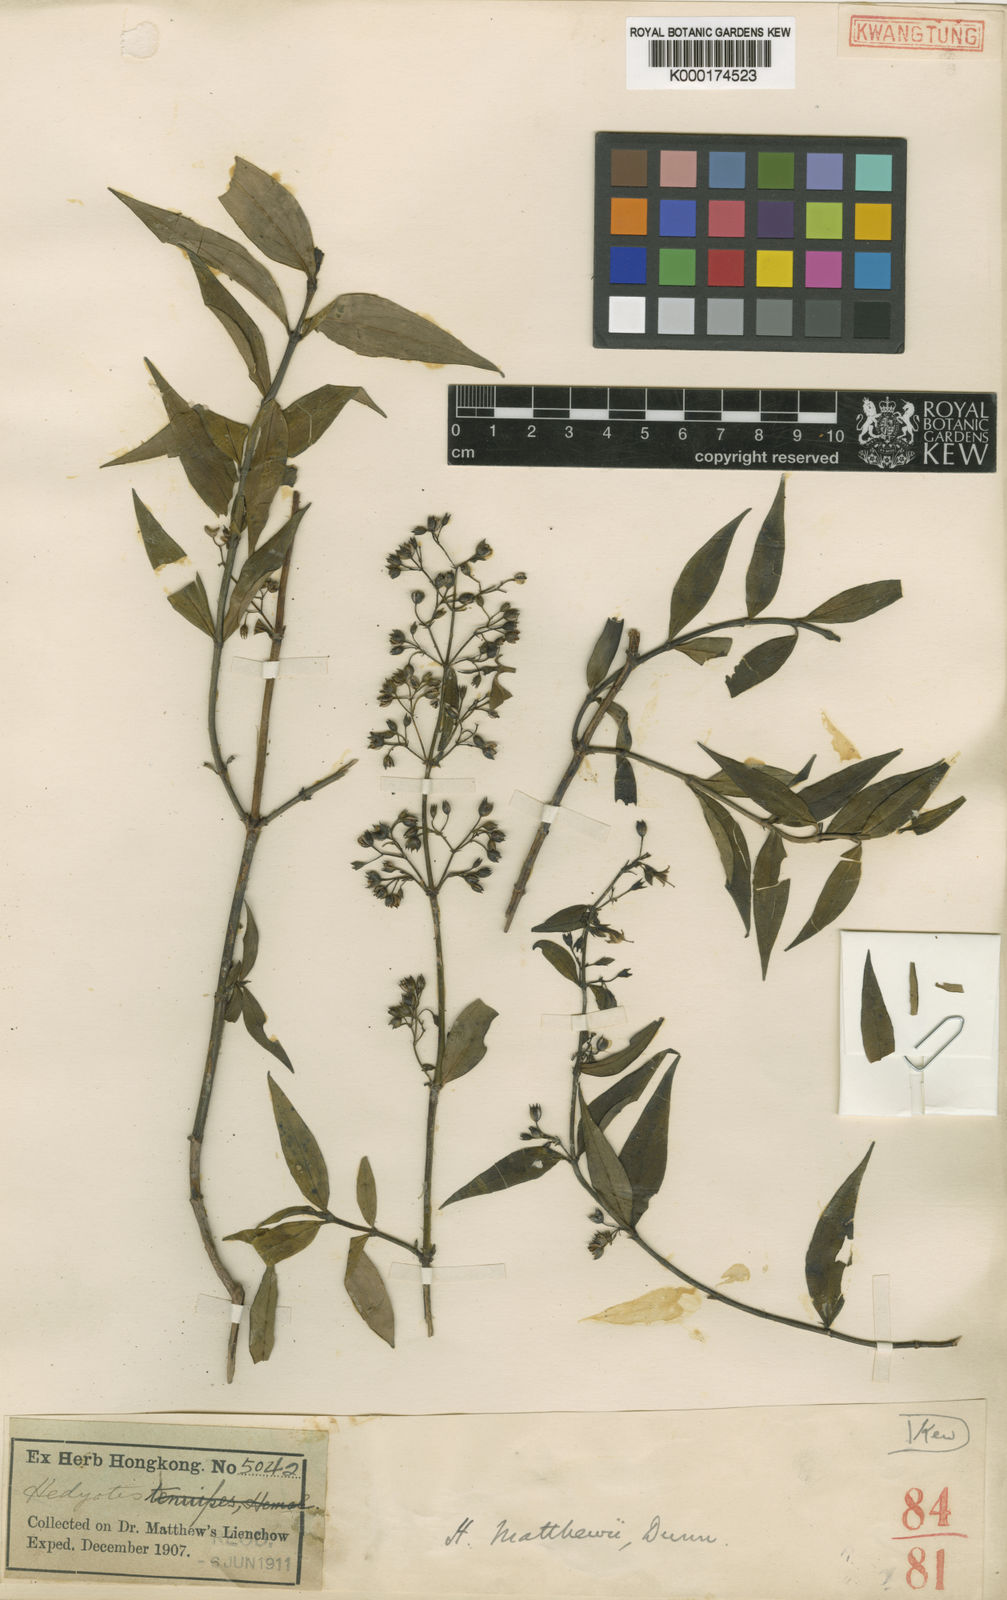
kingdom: Plantae
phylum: Tracheophyta
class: Magnoliopsida
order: Gentianales
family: Rubiaceae
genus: Hedyotis
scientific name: Hedyotis matthewii
